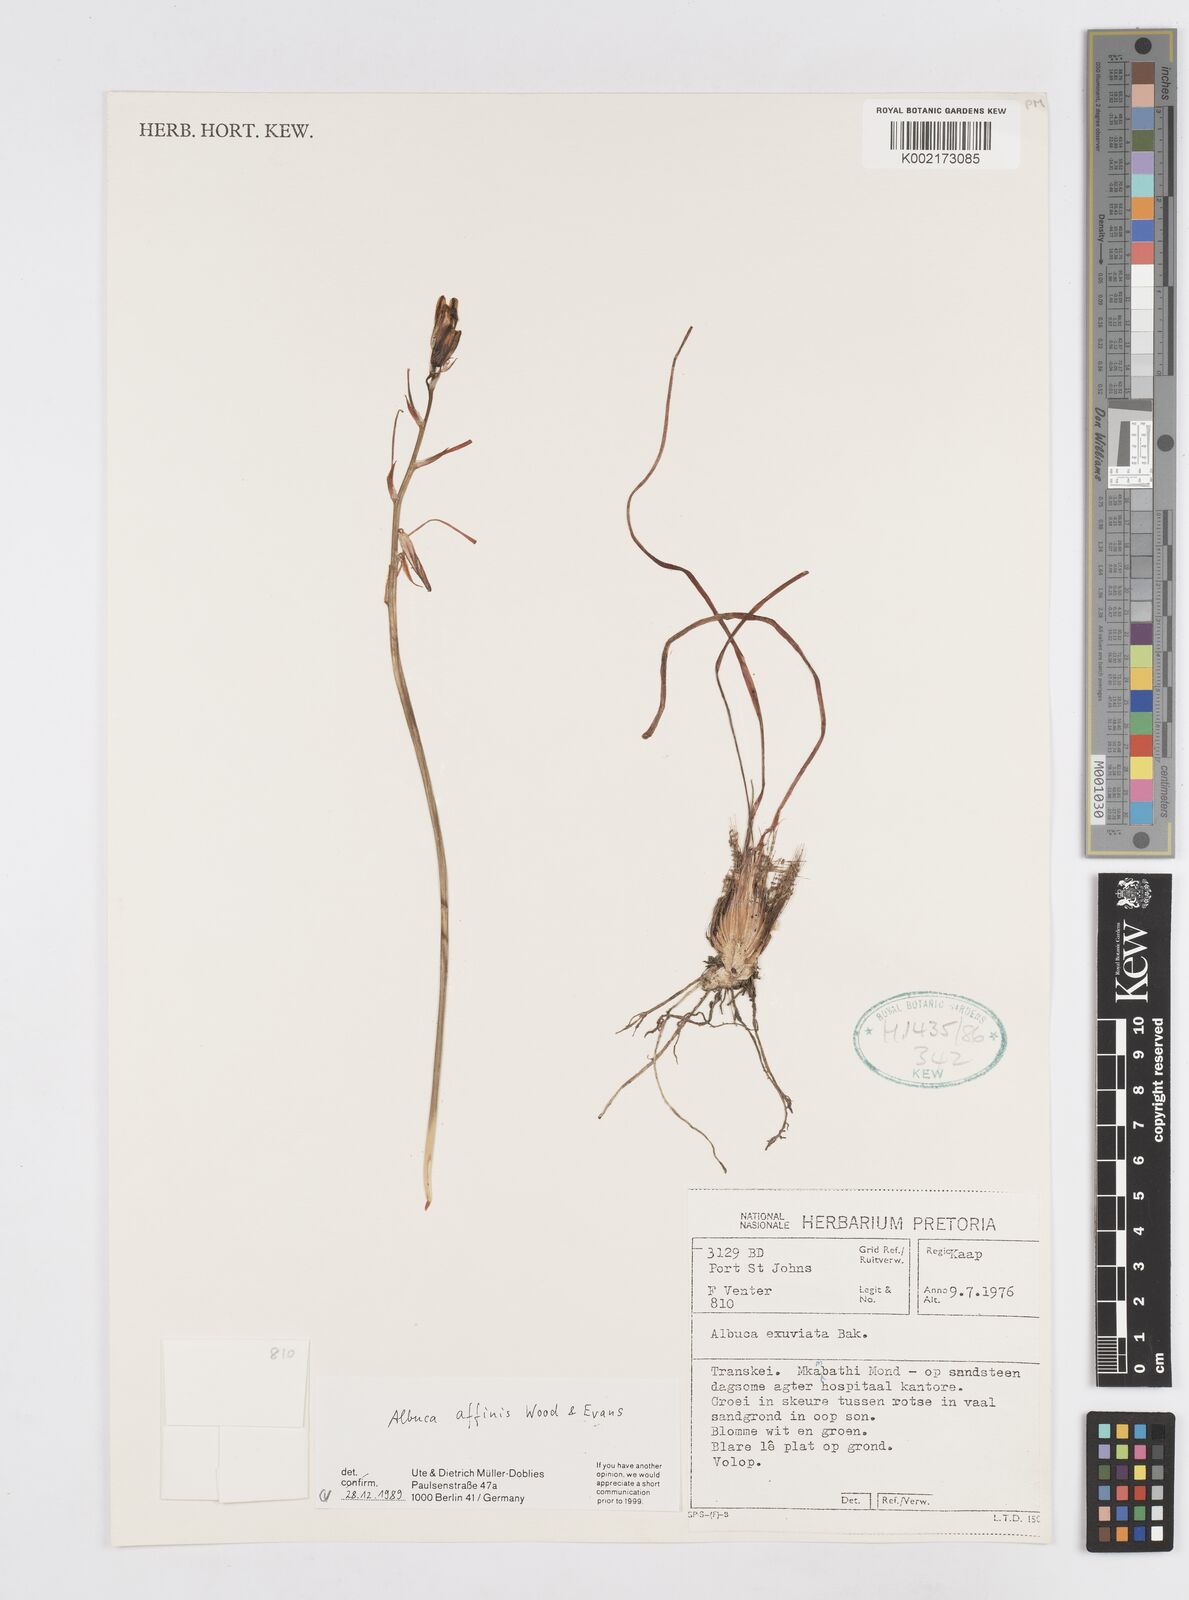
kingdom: Plantae
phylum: Tracheophyta
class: Liliopsida
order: Asparagales
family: Asparagaceae
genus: Ornithogalum
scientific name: Ornithogalum simile
